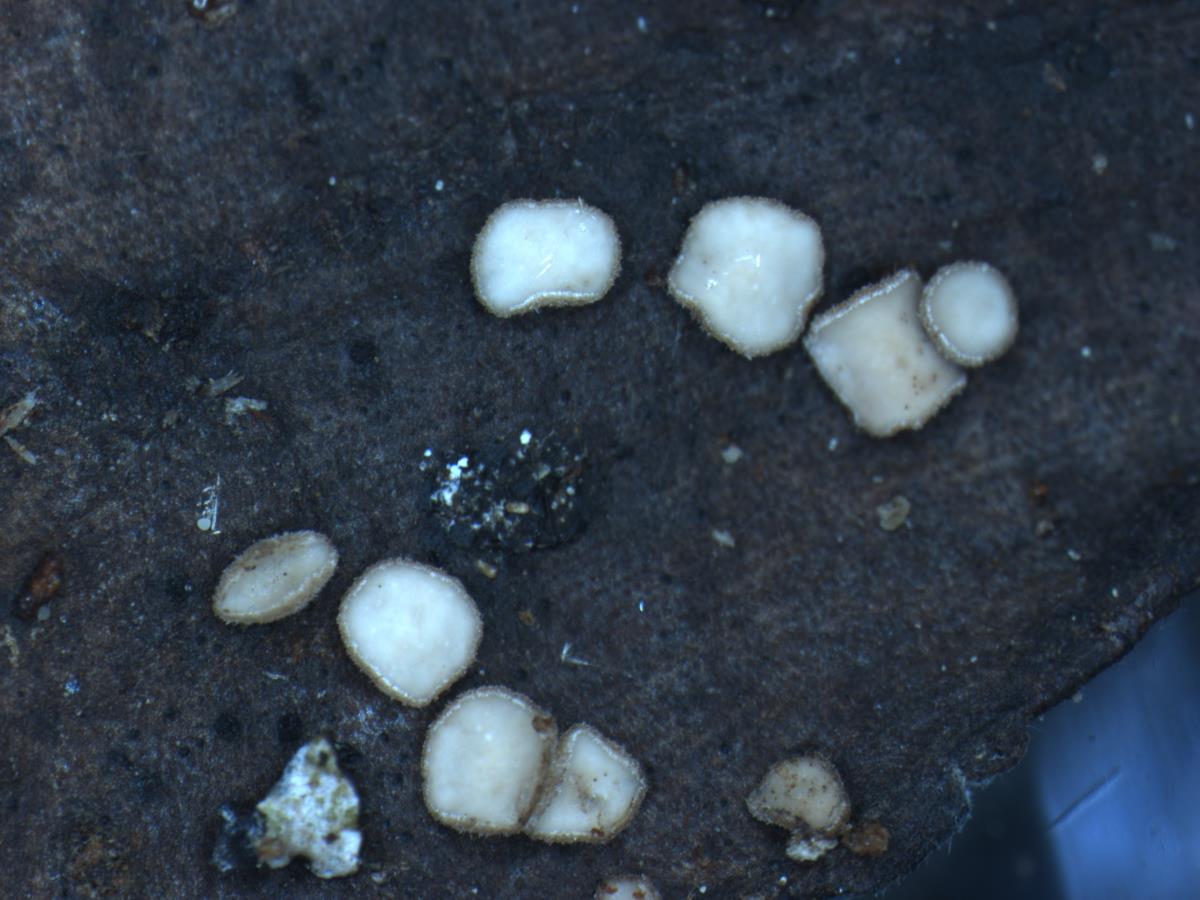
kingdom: Fungi
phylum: Ascomycota
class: Leotiomycetes
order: Helotiales
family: Rutstroemiaceae
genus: Lanzia
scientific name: Lanzia
